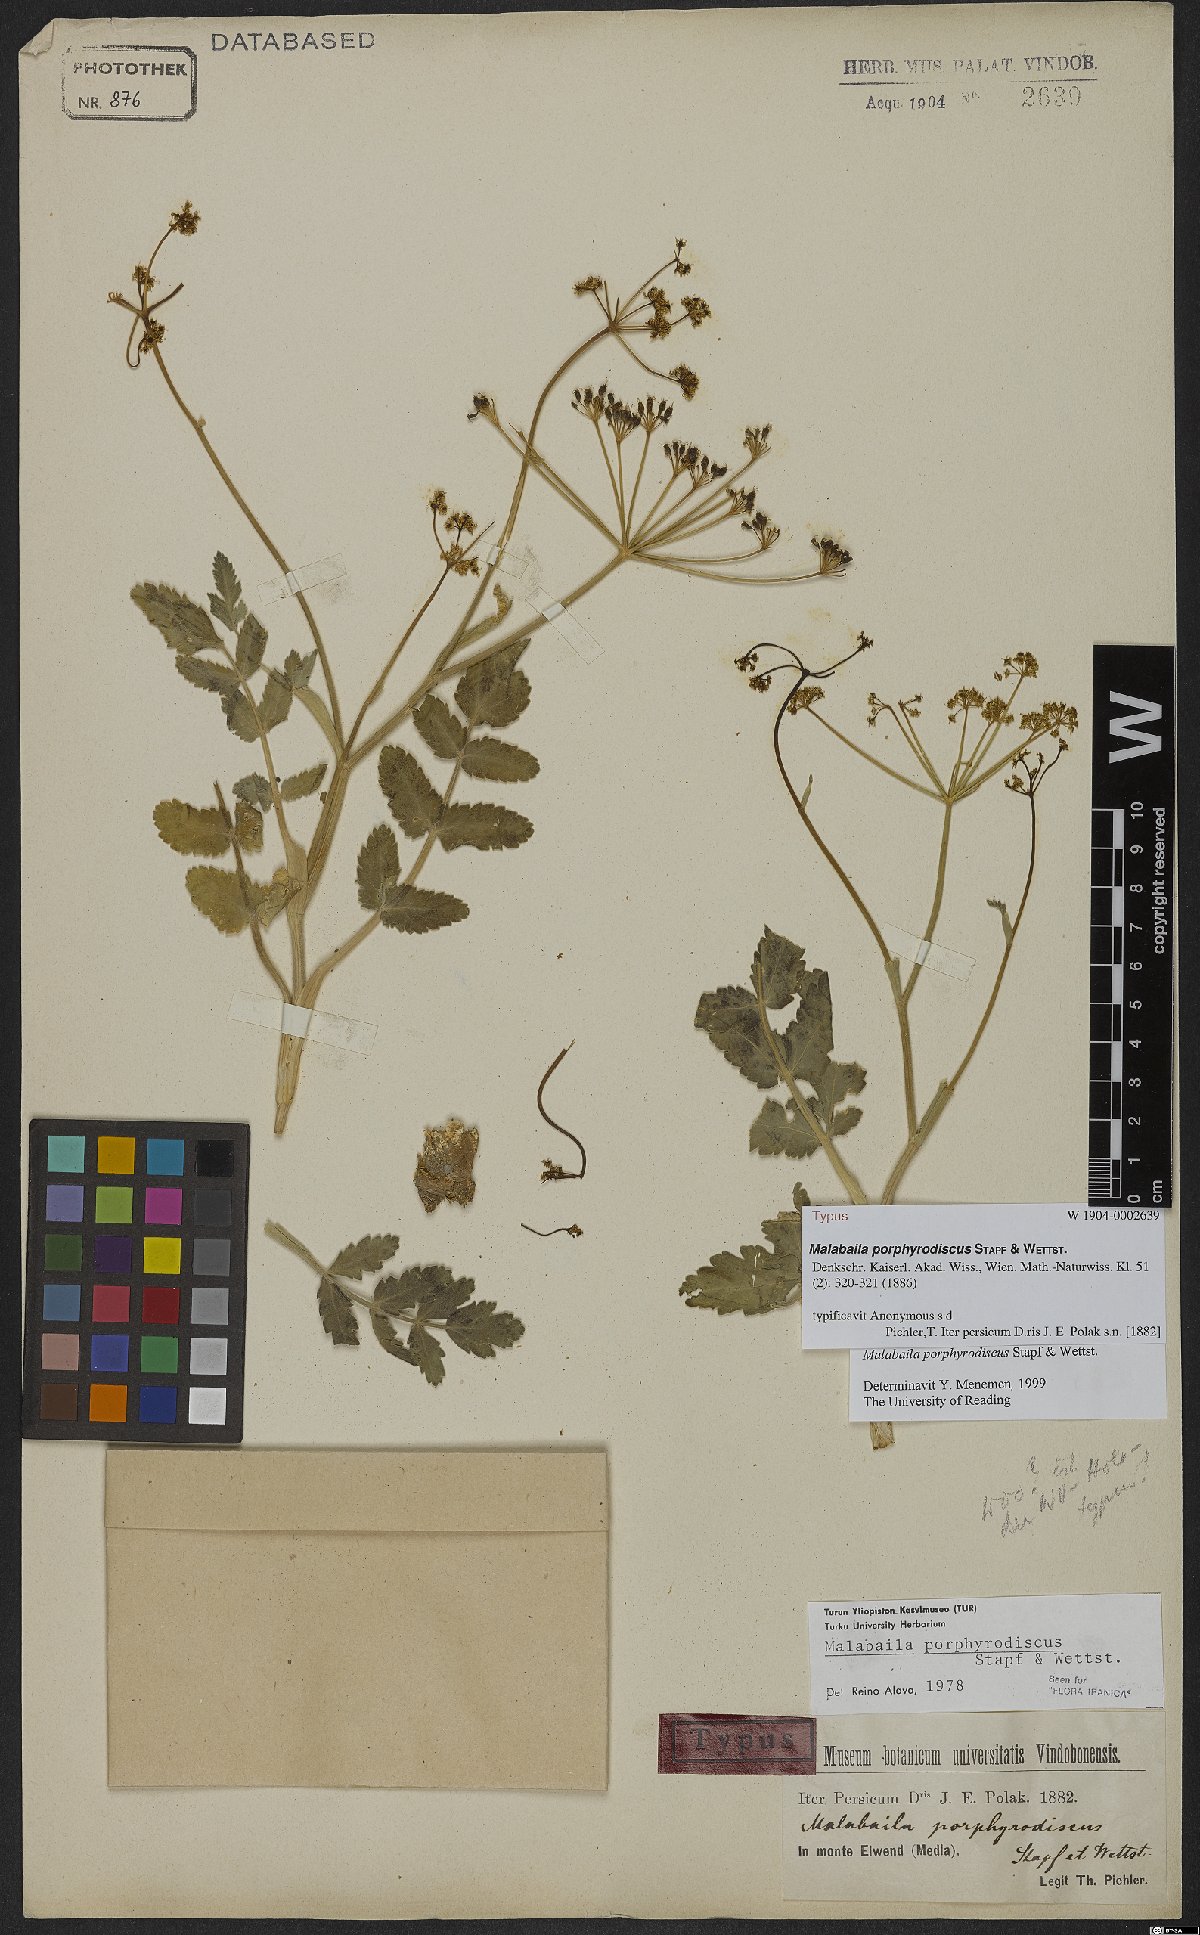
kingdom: Plantae
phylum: Tracheophyta
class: Magnoliopsida
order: Apiales
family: Apiaceae
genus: Leiotulus
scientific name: Leiotulus porphyrodiscus
